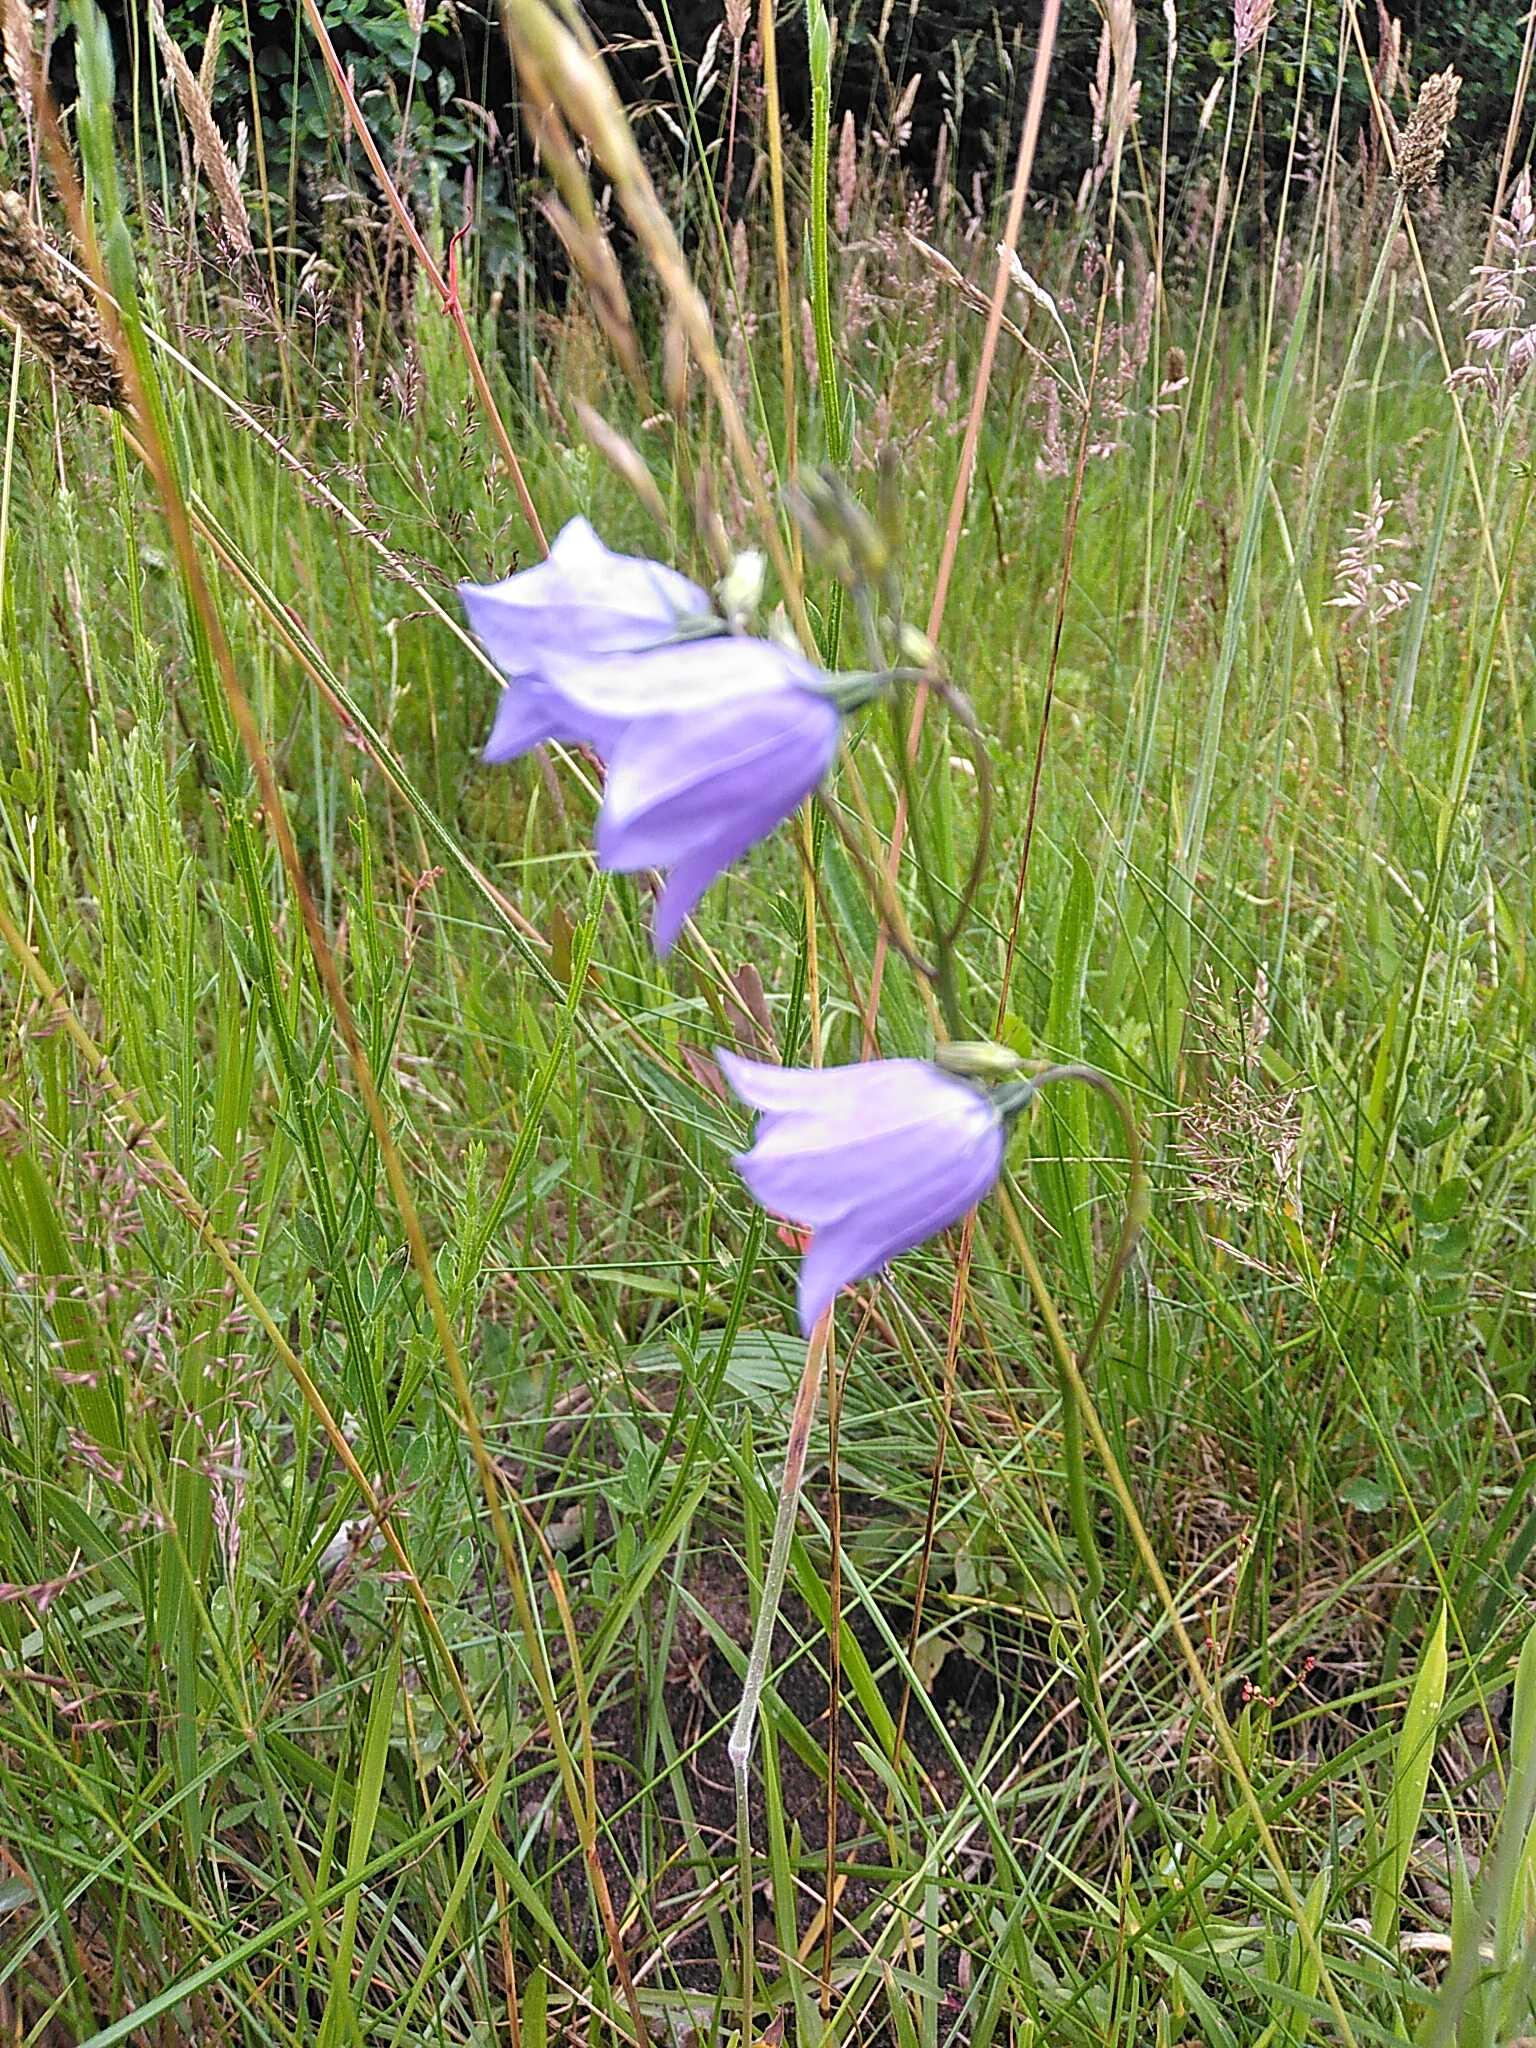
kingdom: Plantae
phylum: Tracheophyta
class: Magnoliopsida
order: Asterales
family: Campanulaceae
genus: Campanula
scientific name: Campanula rotundifolia
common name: Liden klokke
